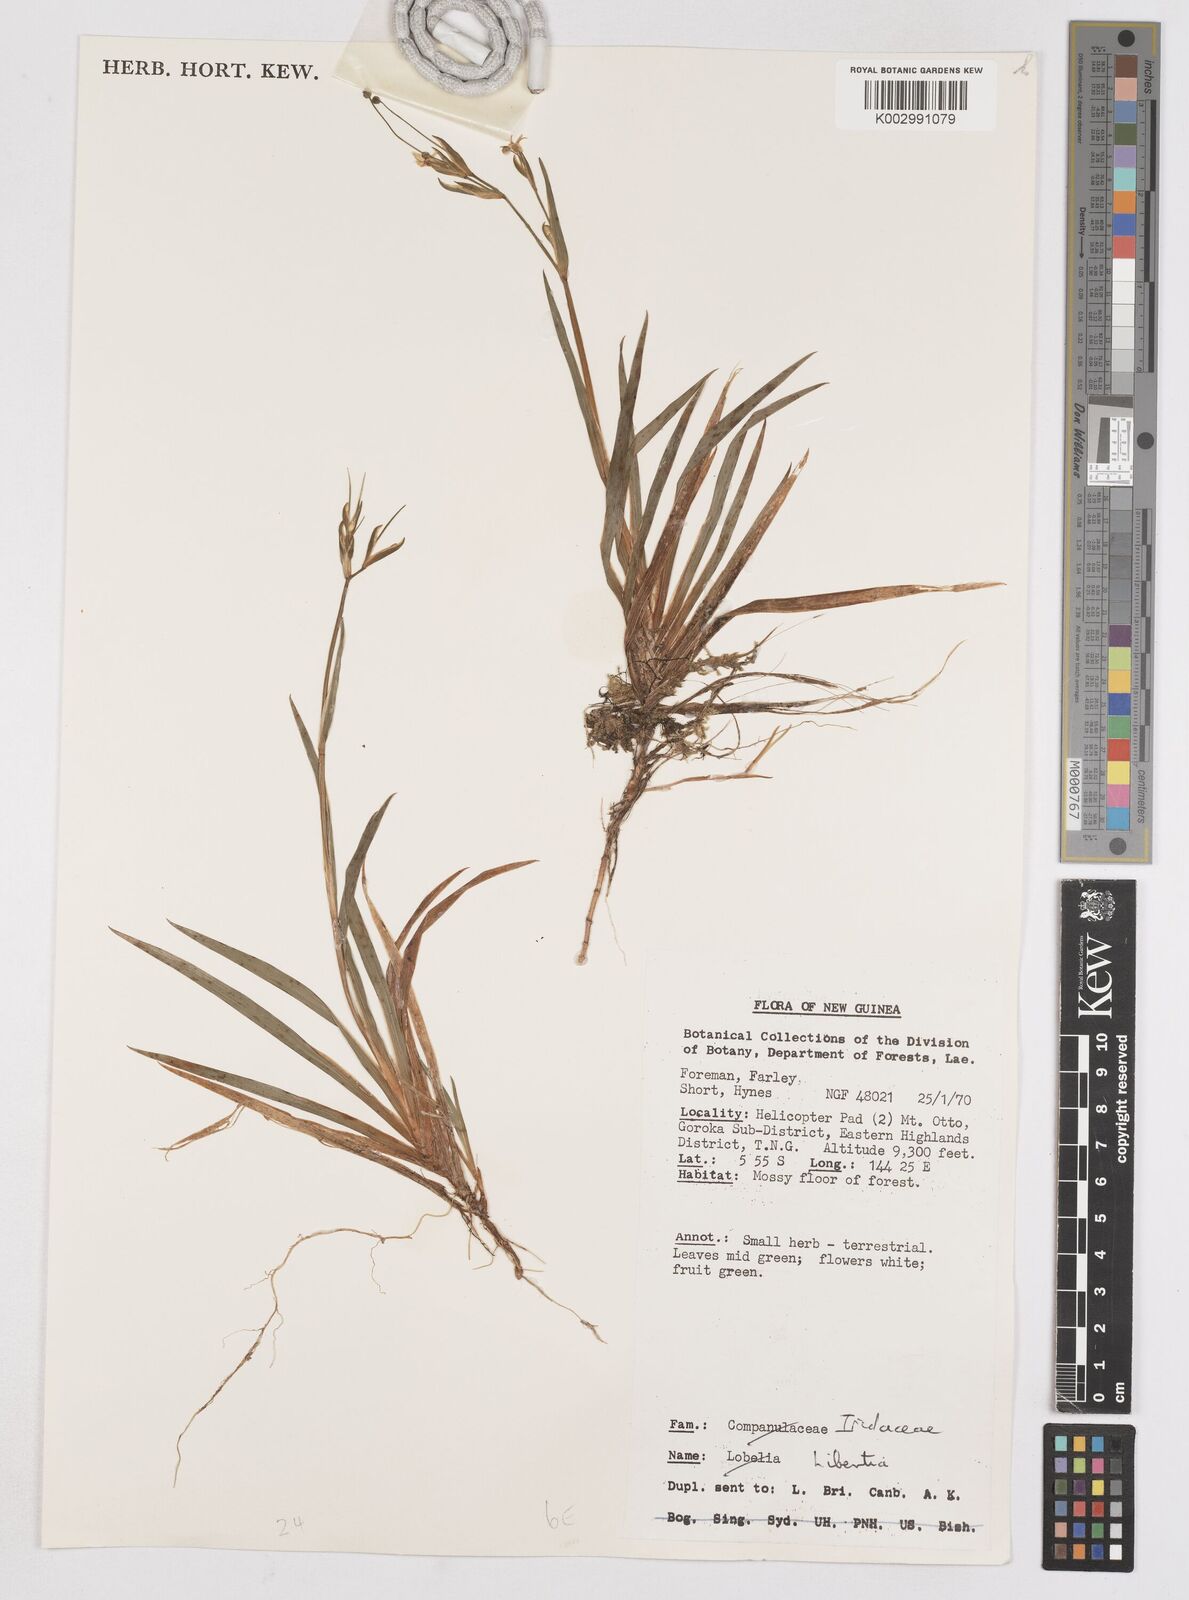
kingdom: Plantae
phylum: Tracheophyta
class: Liliopsida
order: Asparagales
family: Iridaceae
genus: Libertia
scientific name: Libertia
